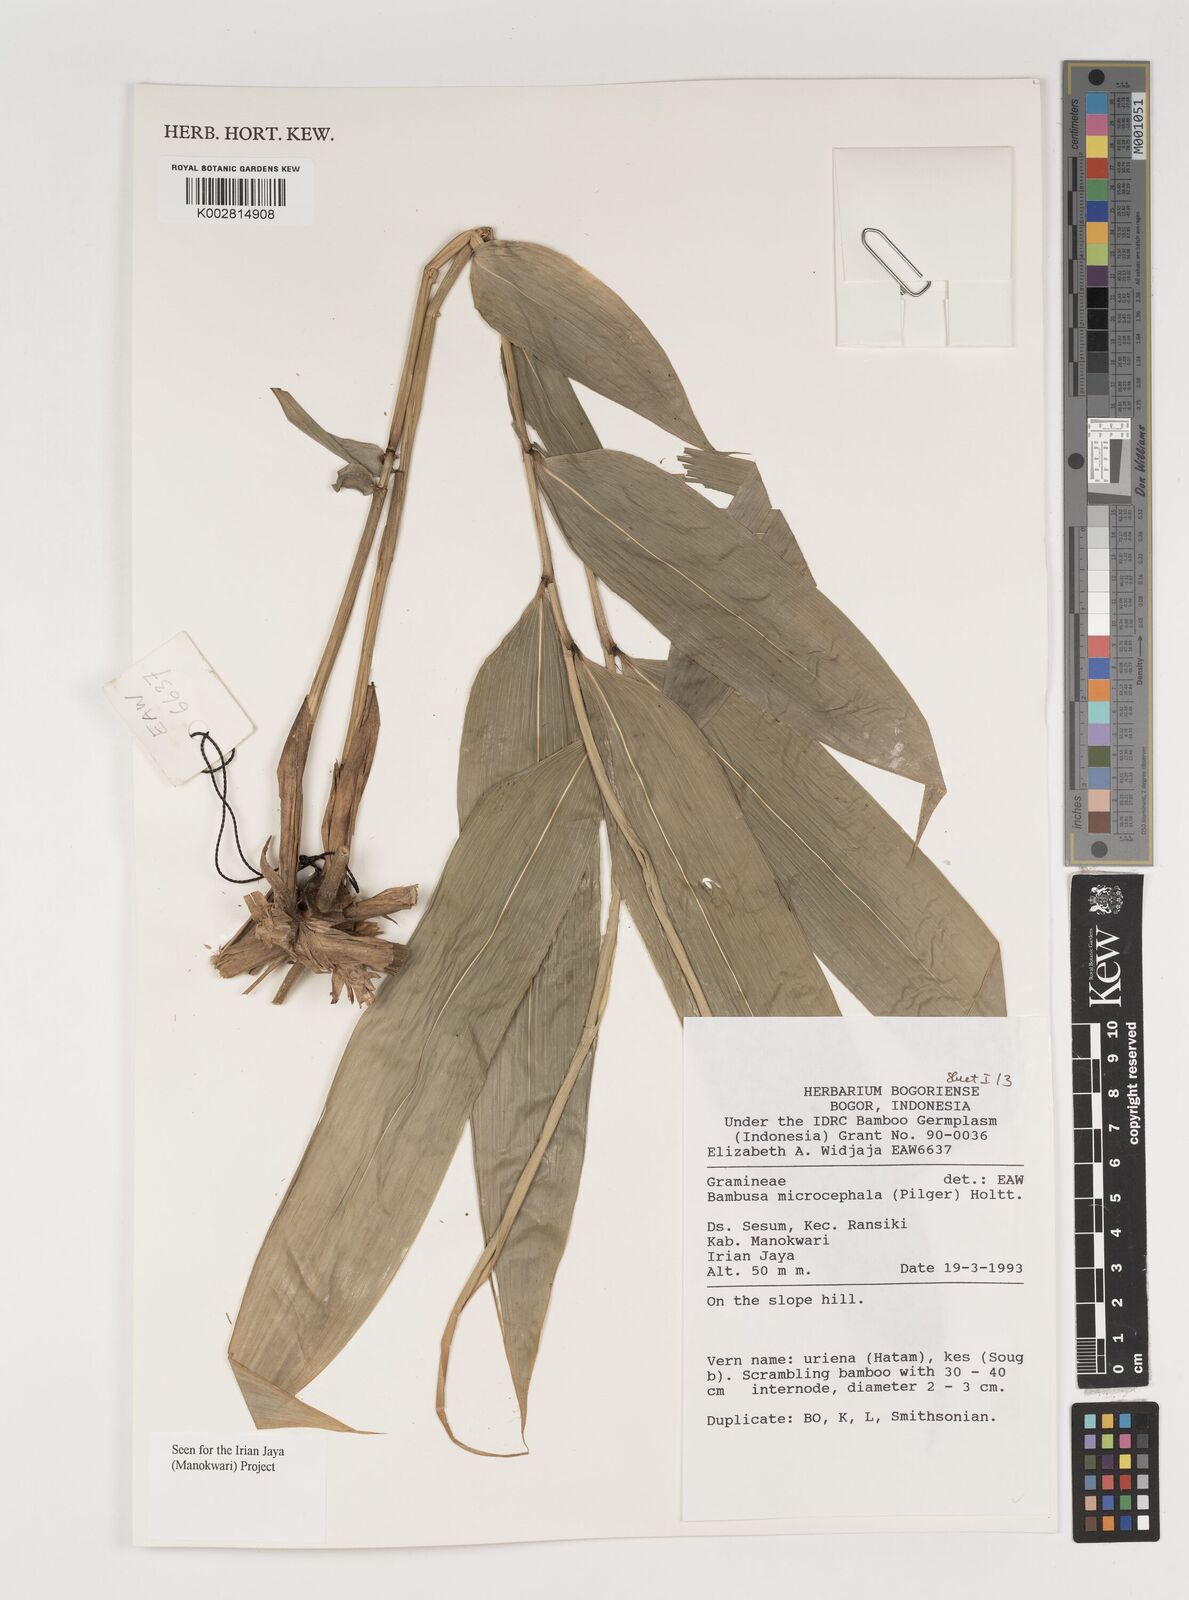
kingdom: Plantae
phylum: Tracheophyta
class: Liliopsida
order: Poales
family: Poaceae
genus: Fimbribambusa
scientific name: Fimbribambusa microcephala
